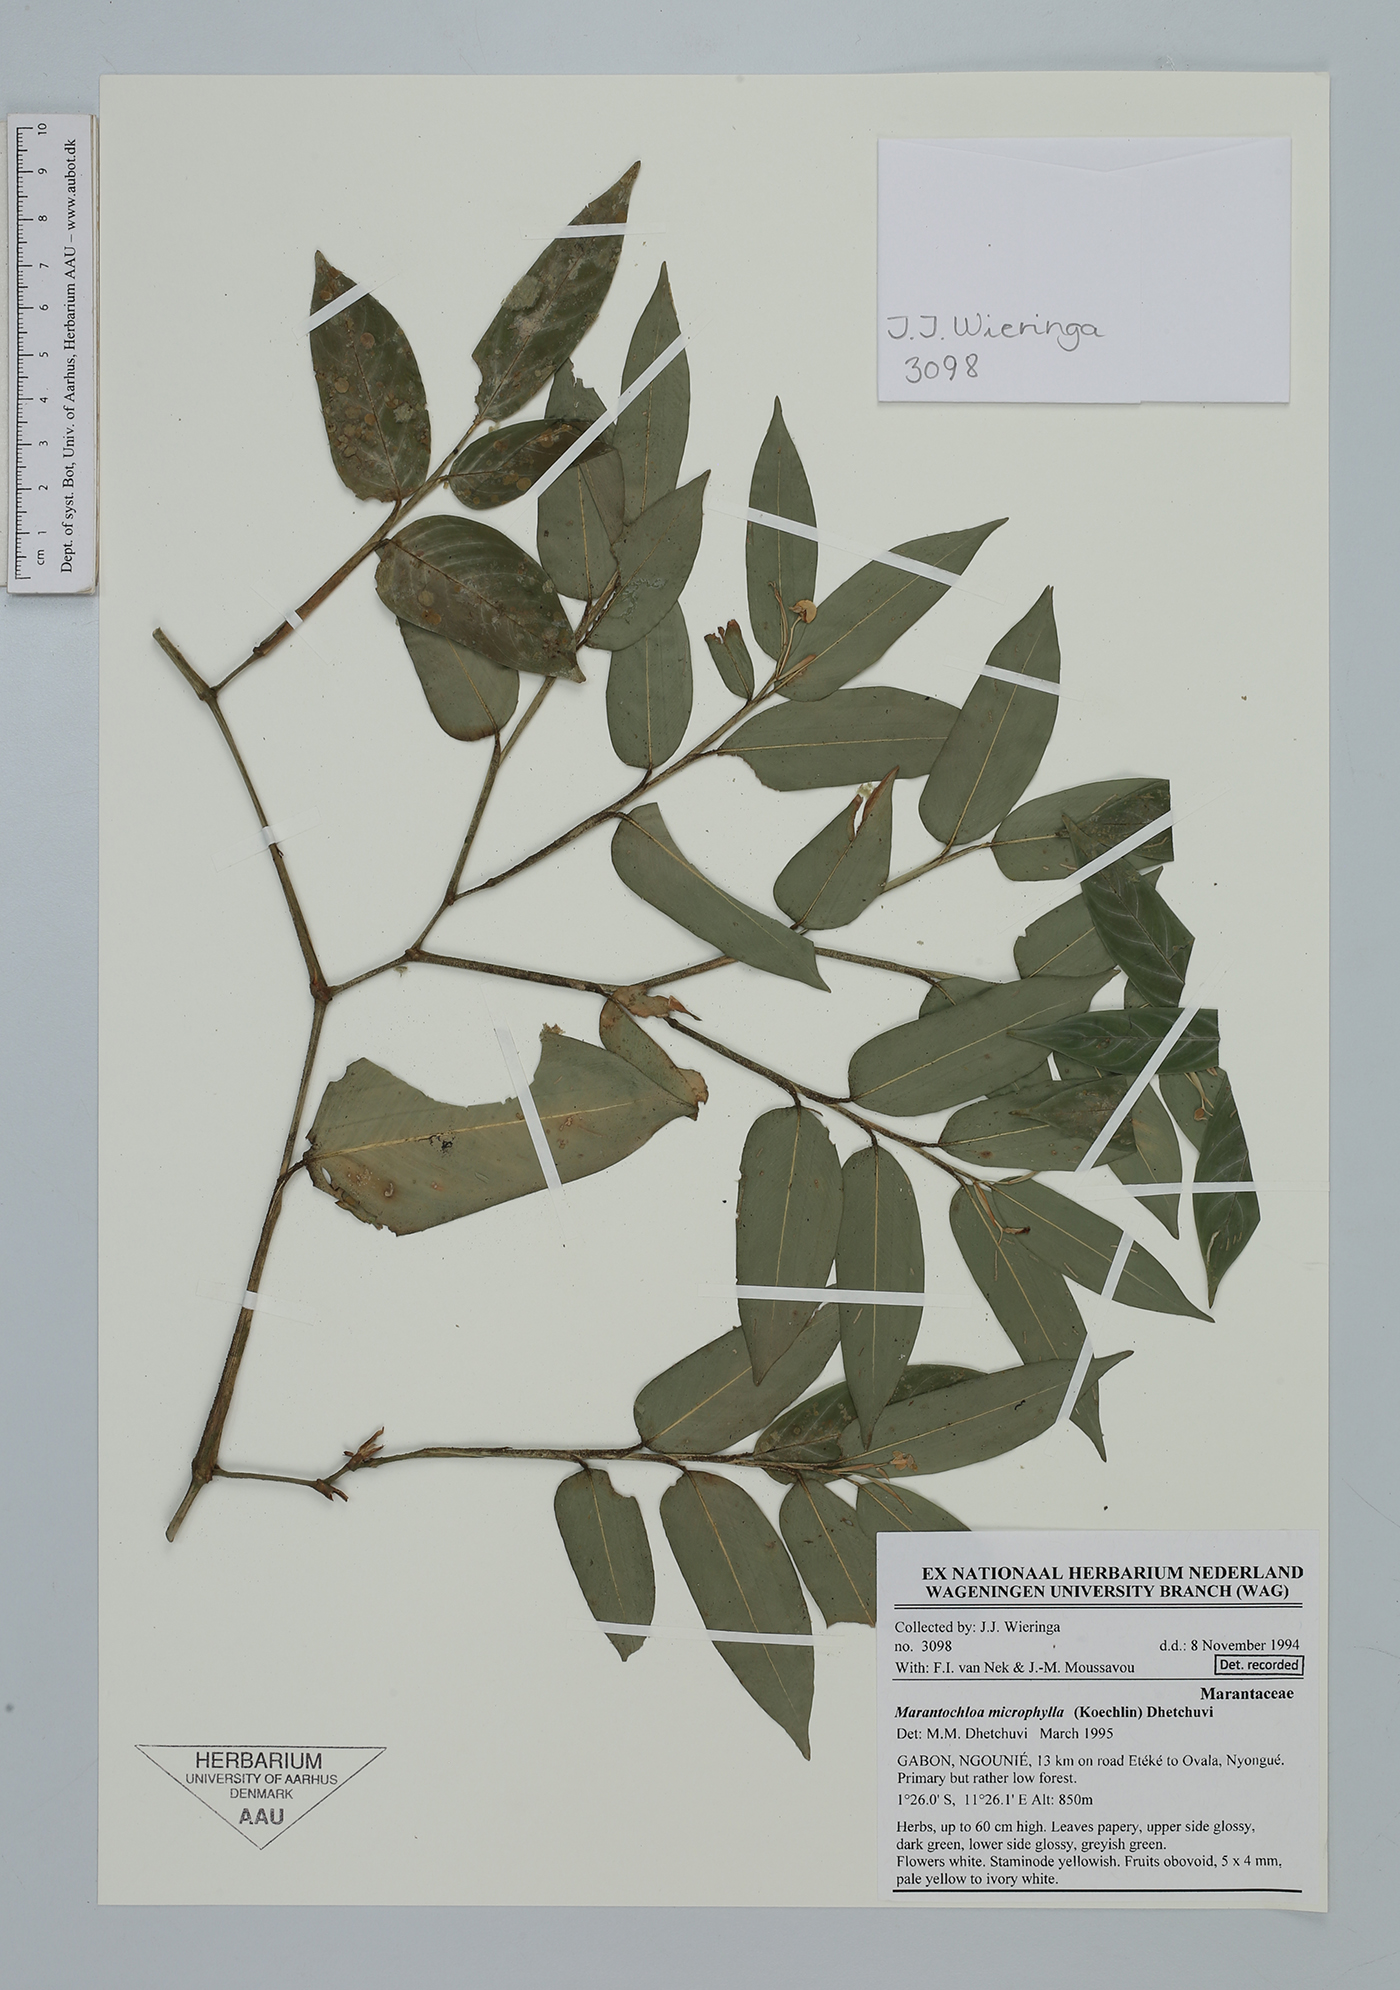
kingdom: Plantae
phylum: Tracheophyta
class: Liliopsida
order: Zingiberales
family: Marantaceae
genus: Marantochloa
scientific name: Marantochloa microphylla
